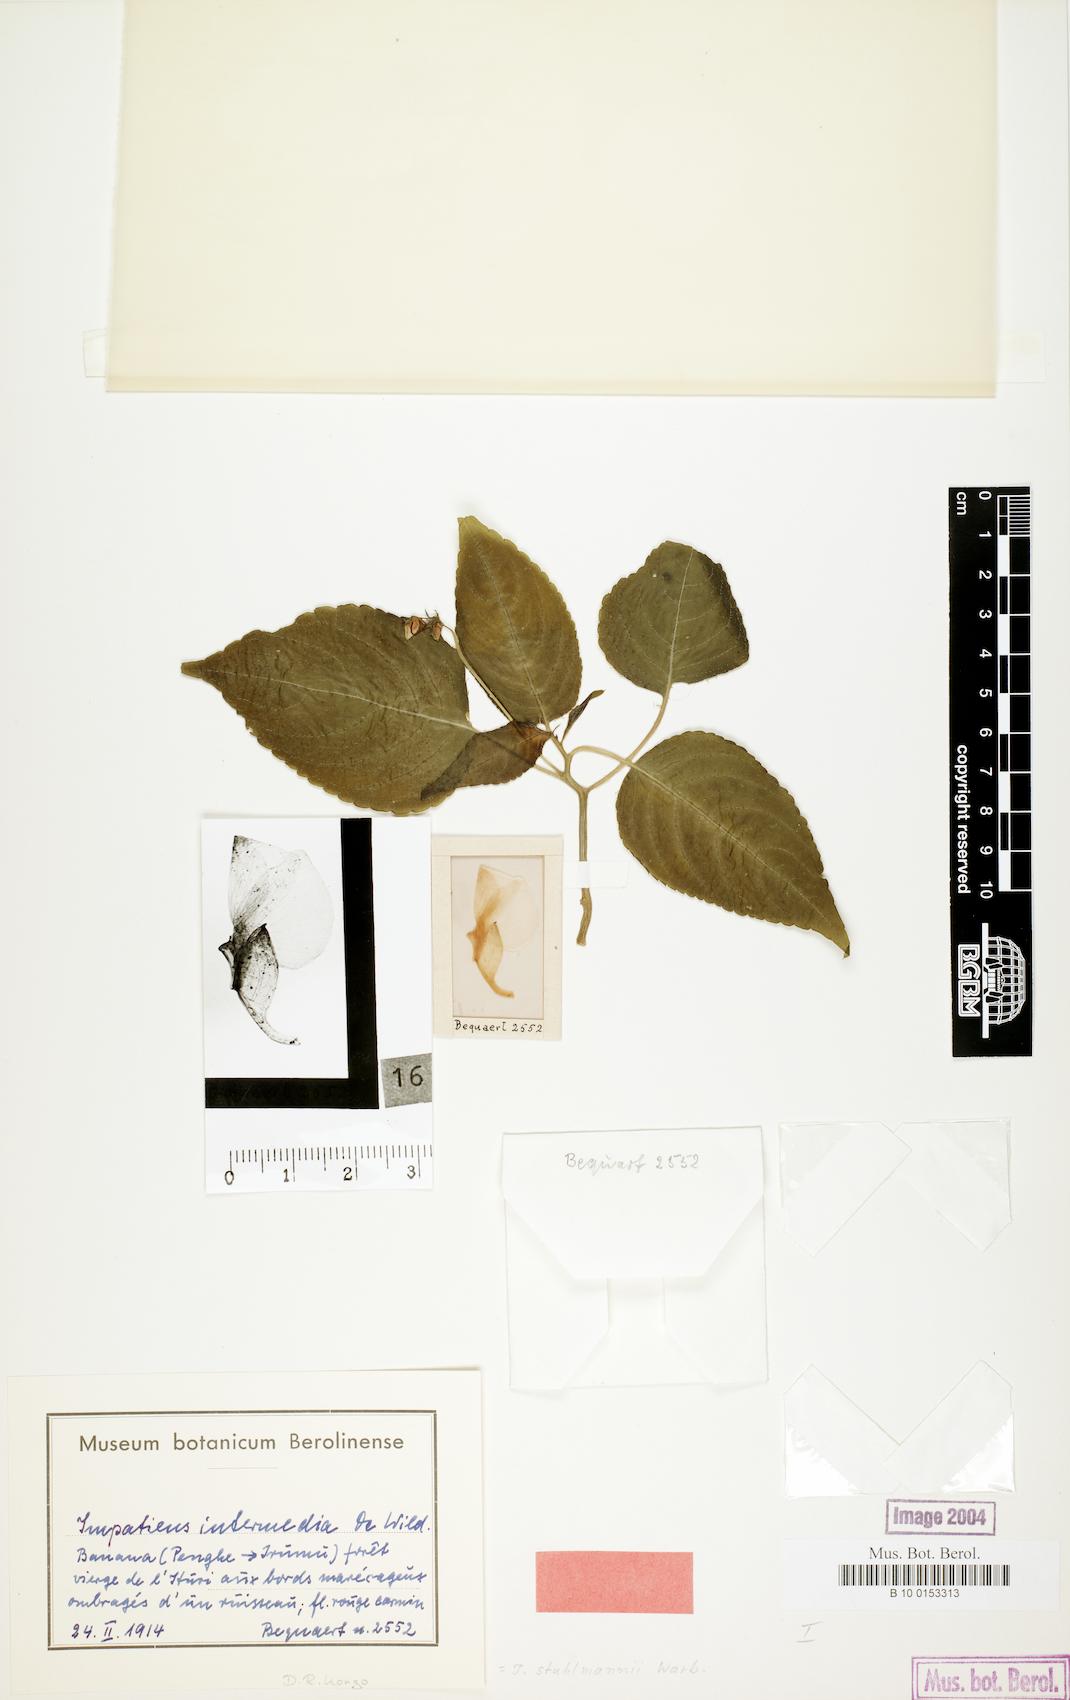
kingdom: Plantae
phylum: Tracheophyta
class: Magnoliopsida
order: Ericales
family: Balsaminaceae
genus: Impatiens
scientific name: Impatiens stuhlmannii
